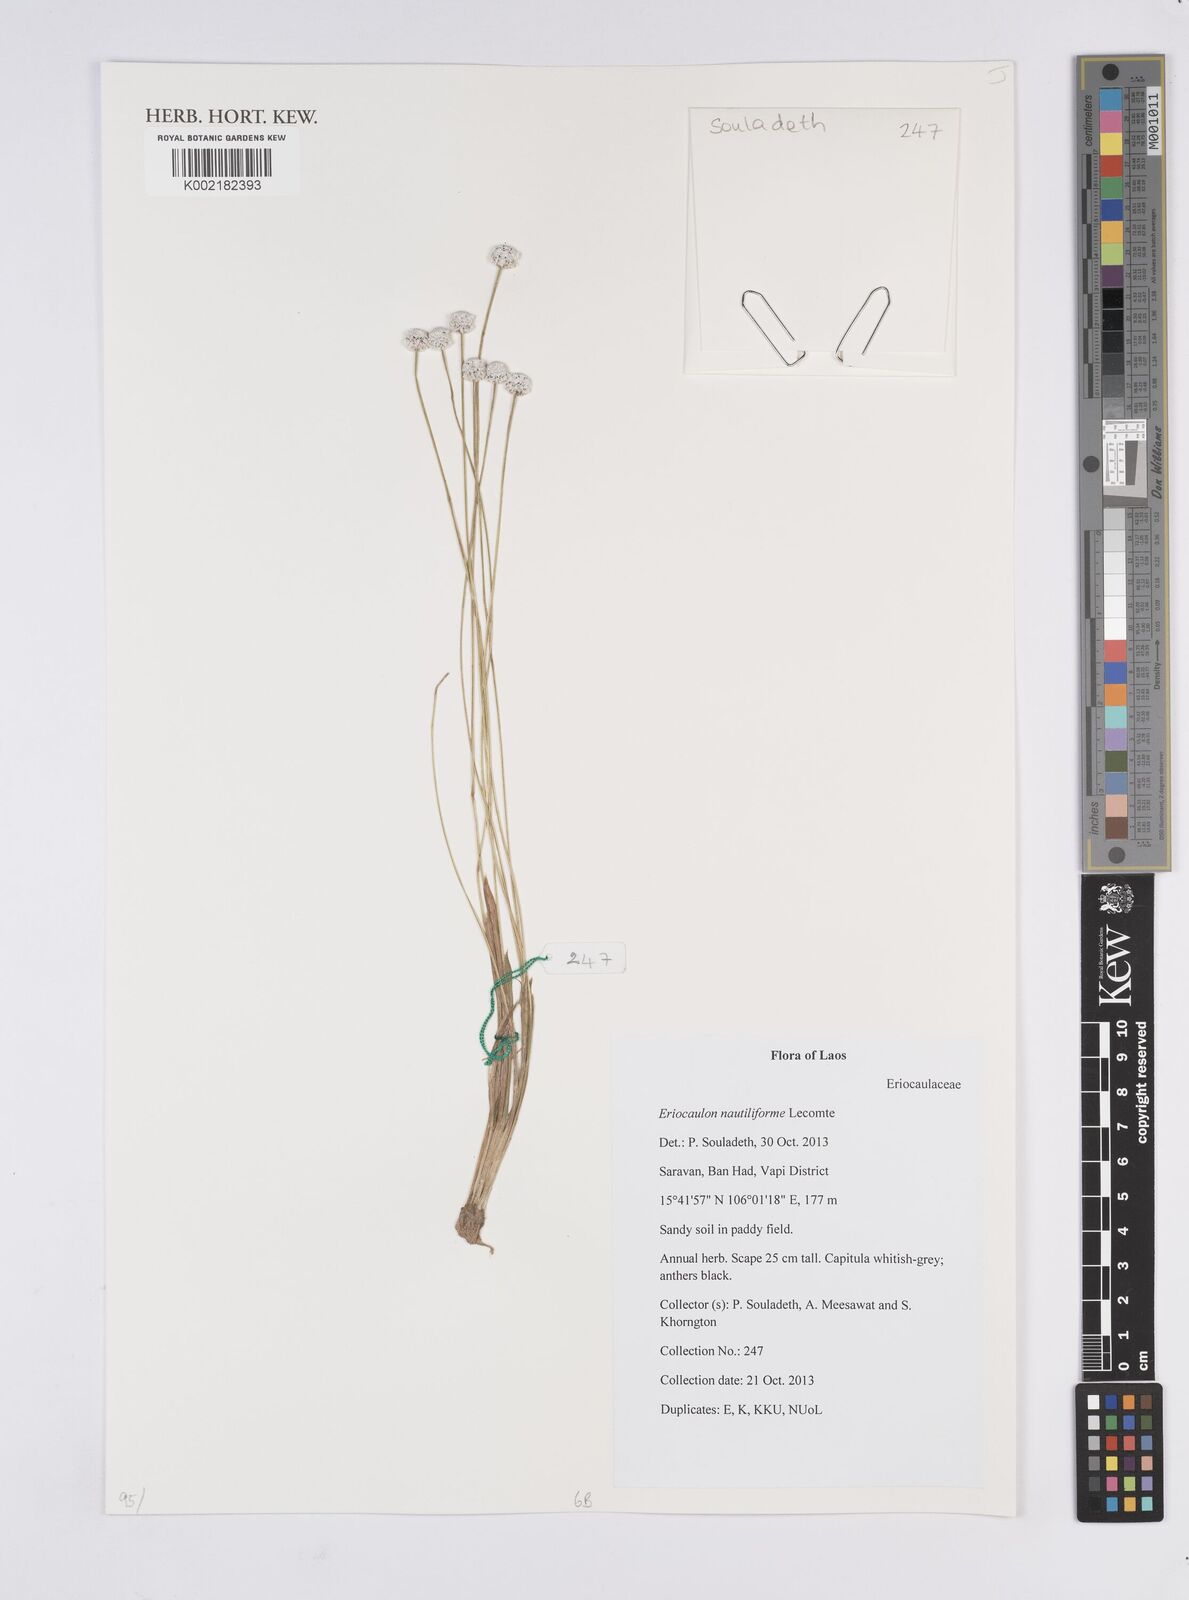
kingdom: Plantae
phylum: Tracheophyta
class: Liliopsida
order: Poales
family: Eriocaulaceae
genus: Eriocaulon
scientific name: Eriocaulon nautiliforme
